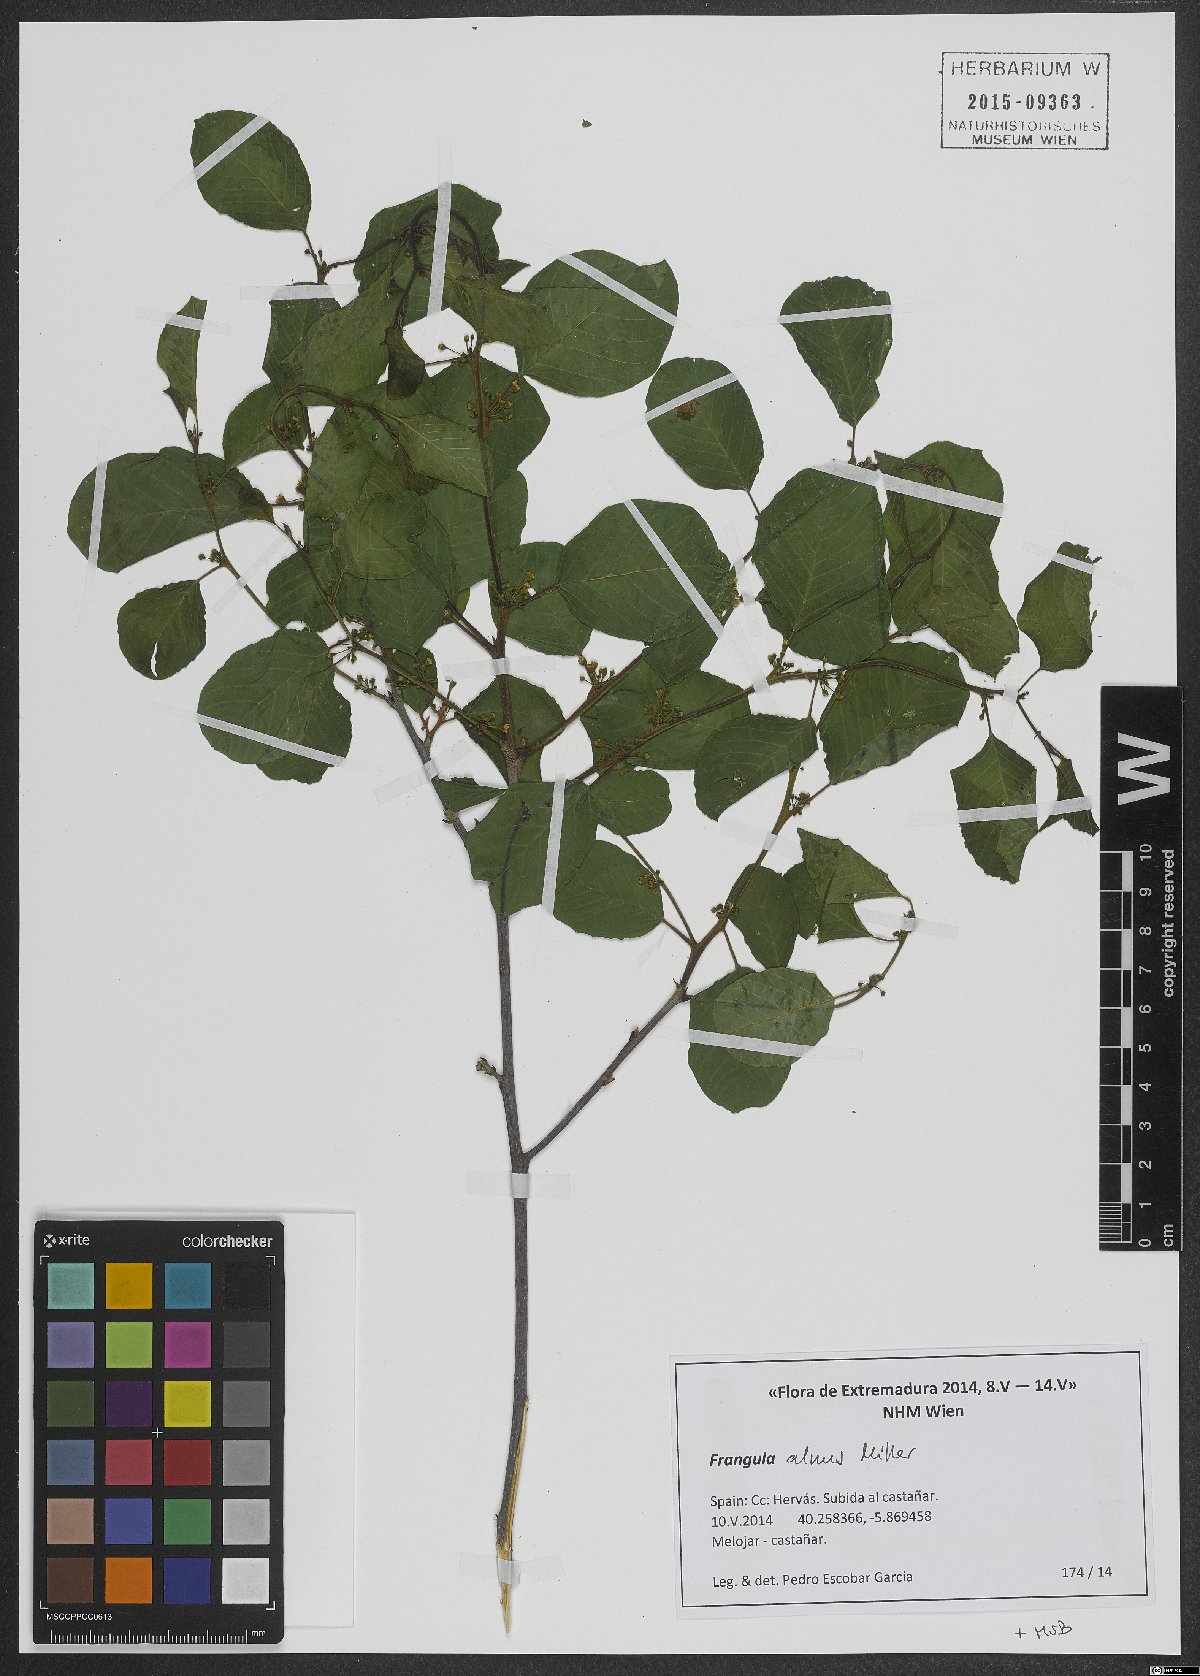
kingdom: Plantae
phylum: Tracheophyta
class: Magnoliopsida
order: Rosales
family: Rhamnaceae
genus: Frangula
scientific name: Frangula alnus
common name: Alder buckthorn
